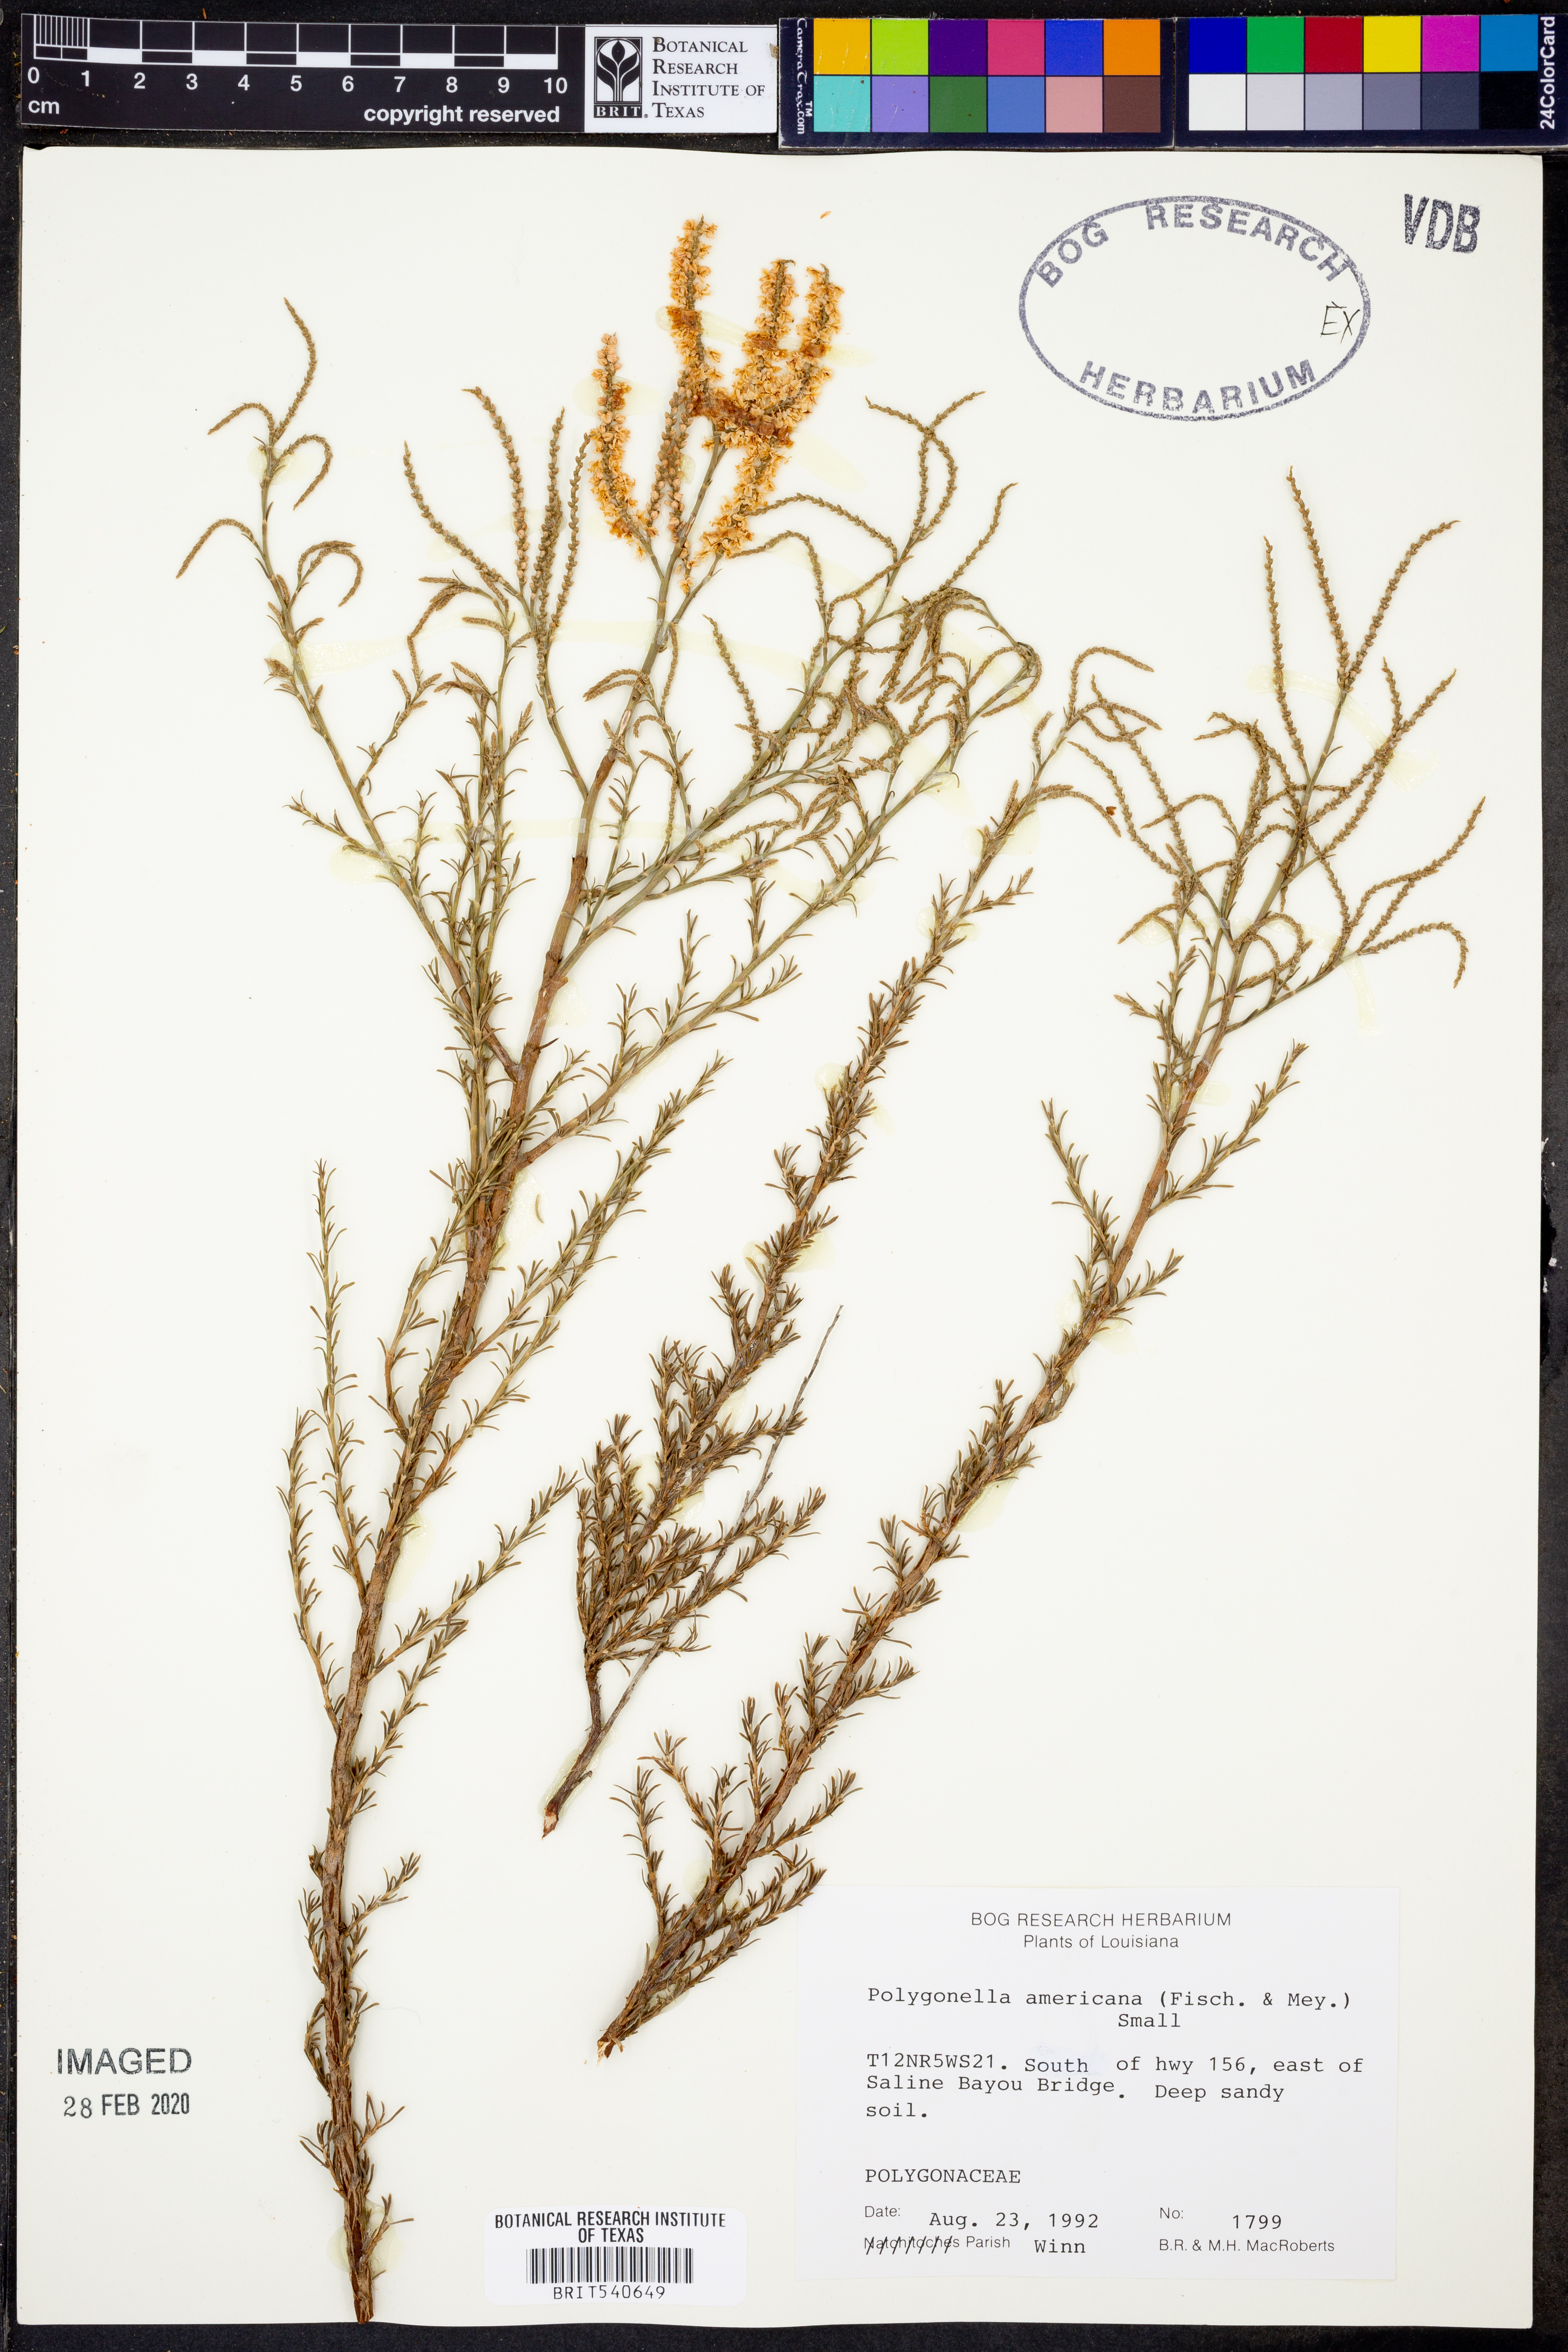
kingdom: Plantae
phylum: Tracheophyta
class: Magnoliopsida
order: Caryophyllales
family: Polygonaceae
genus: Polygonella
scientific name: Polygonella americana
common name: Southern jointweed
